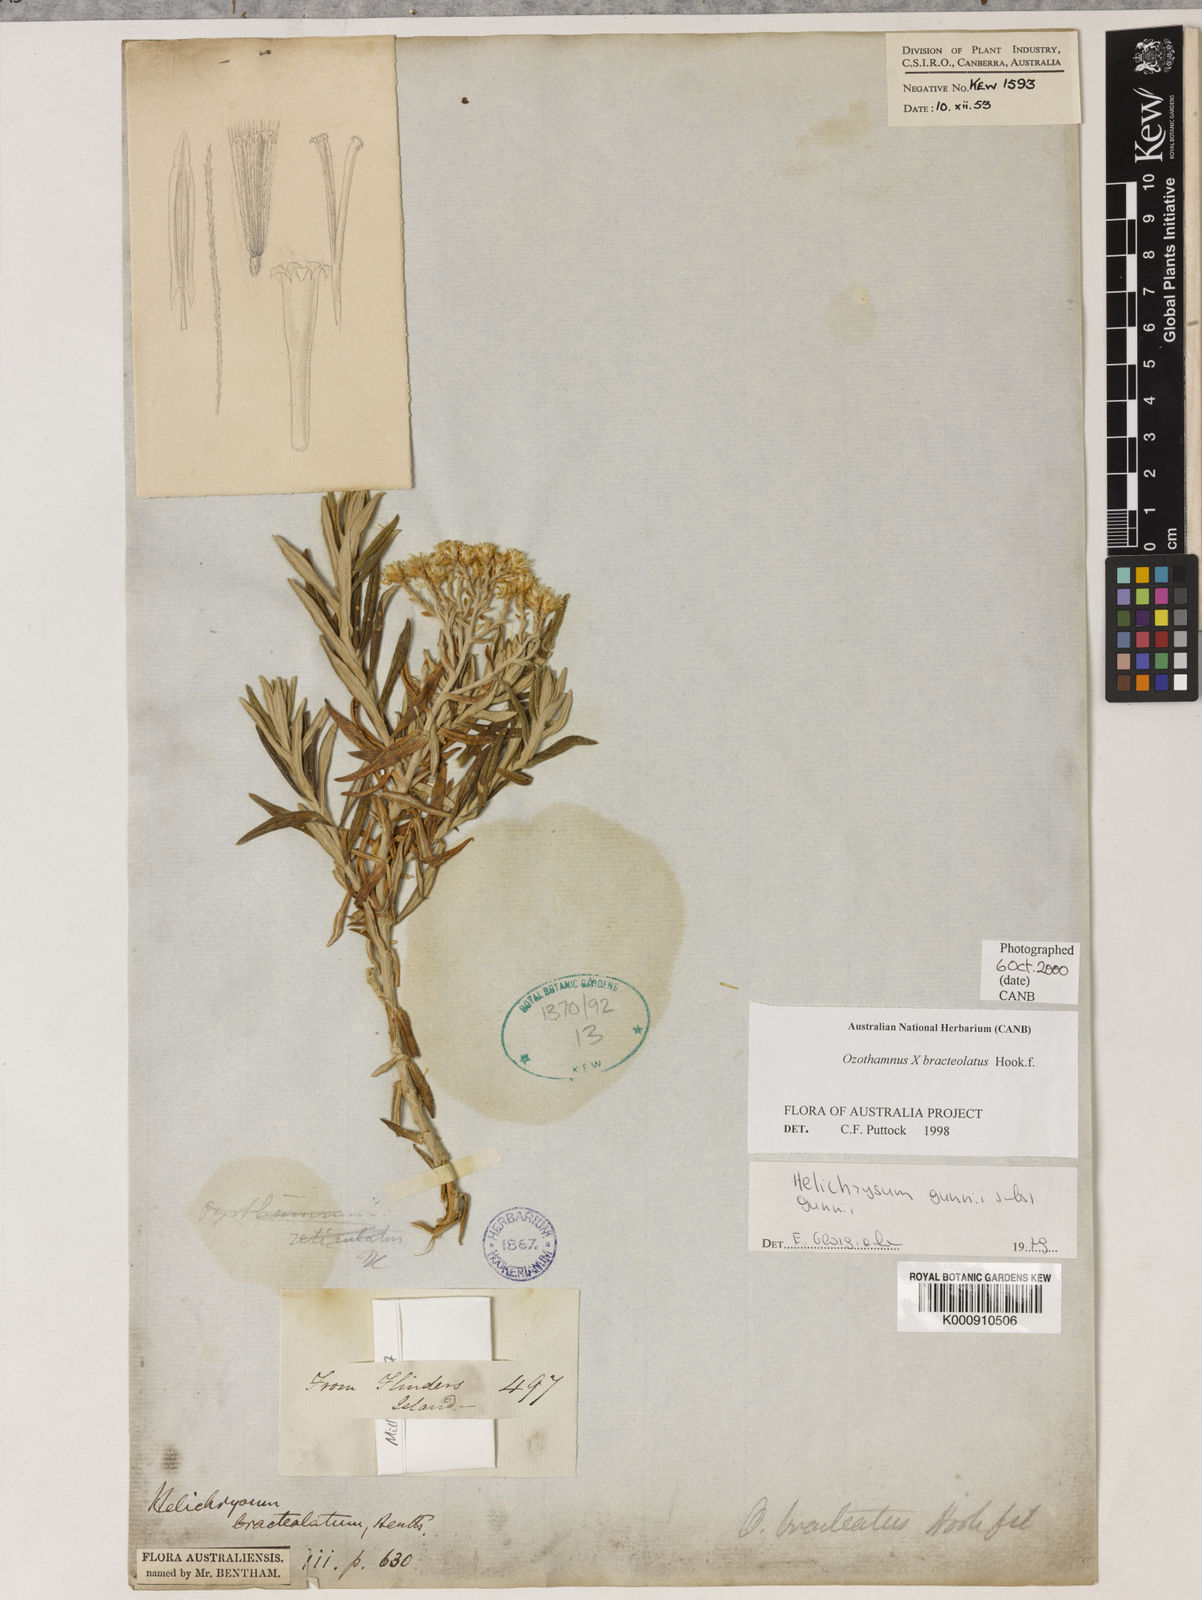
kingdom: Plantae
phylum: Tracheophyta
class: Magnoliopsida
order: Asterales
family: Asteraceae
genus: Ozothamnus
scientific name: Ozothamnus gunnii
